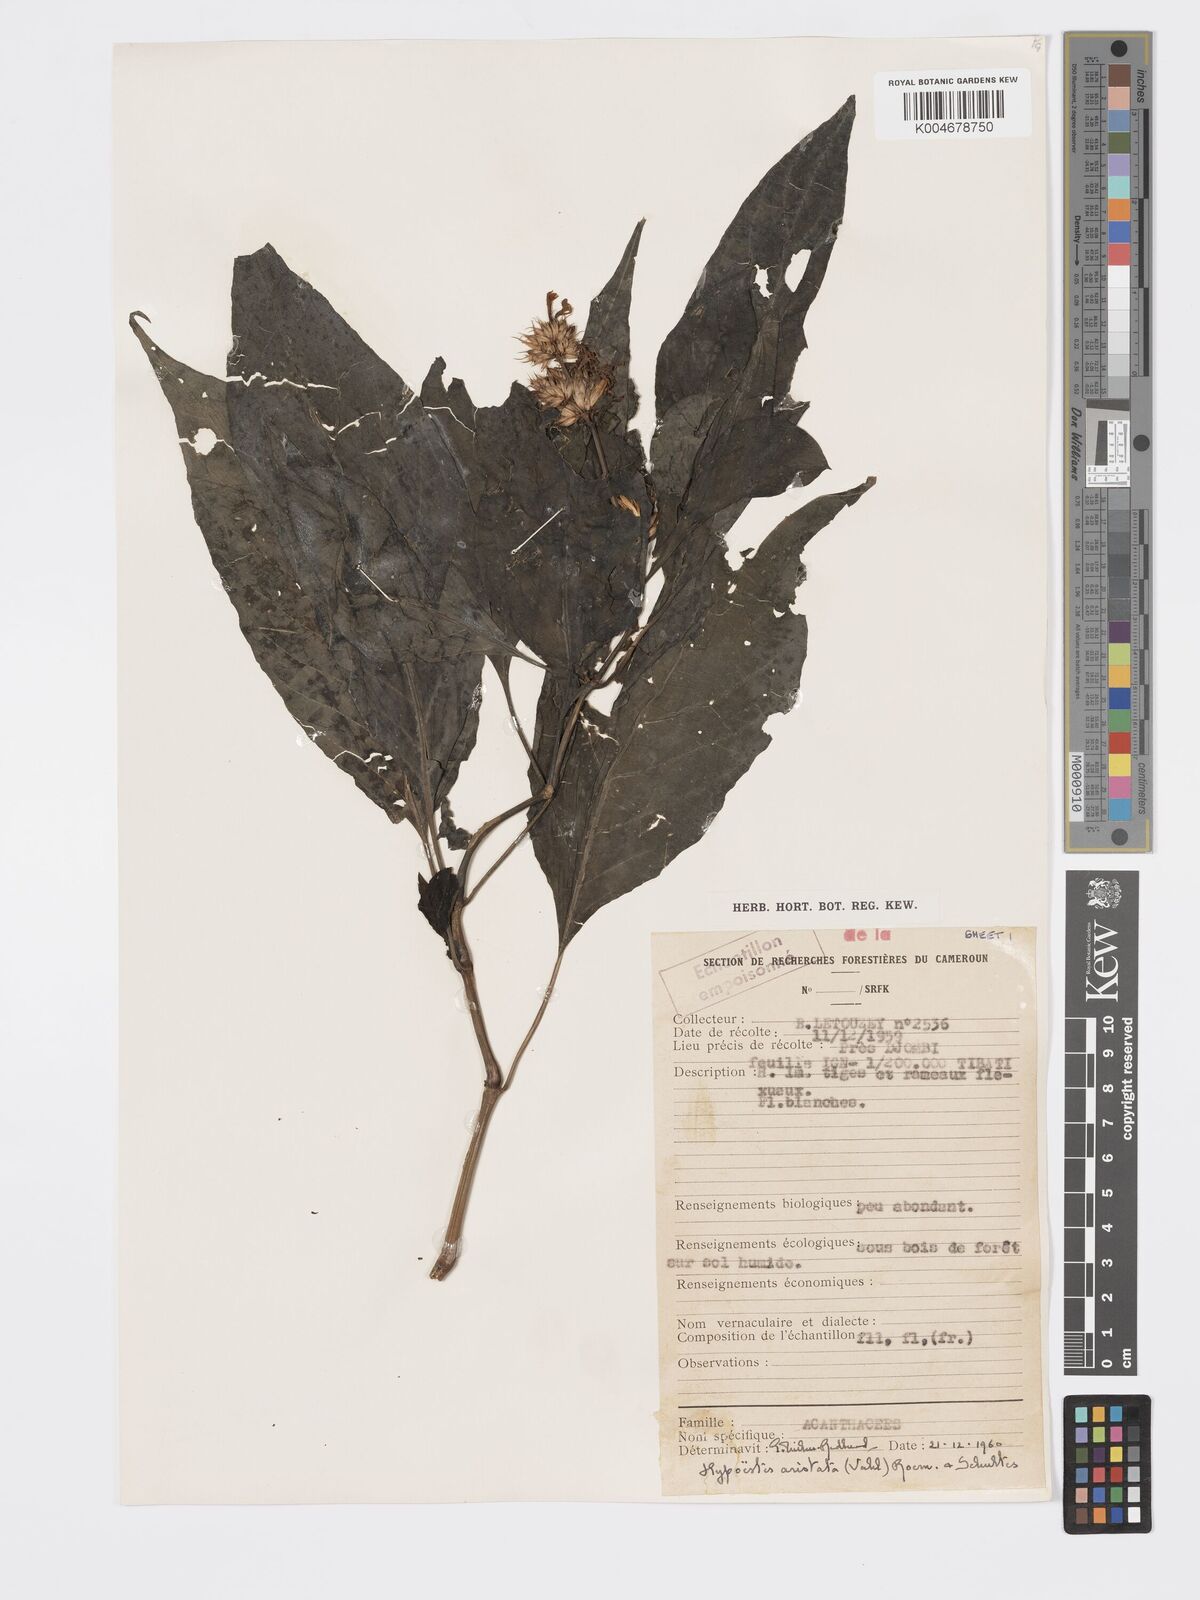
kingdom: Plantae
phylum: Tracheophyta
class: Magnoliopsida
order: Lamiales
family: Acanthaceae
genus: Hypoestes
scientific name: Hypoestes aristata
